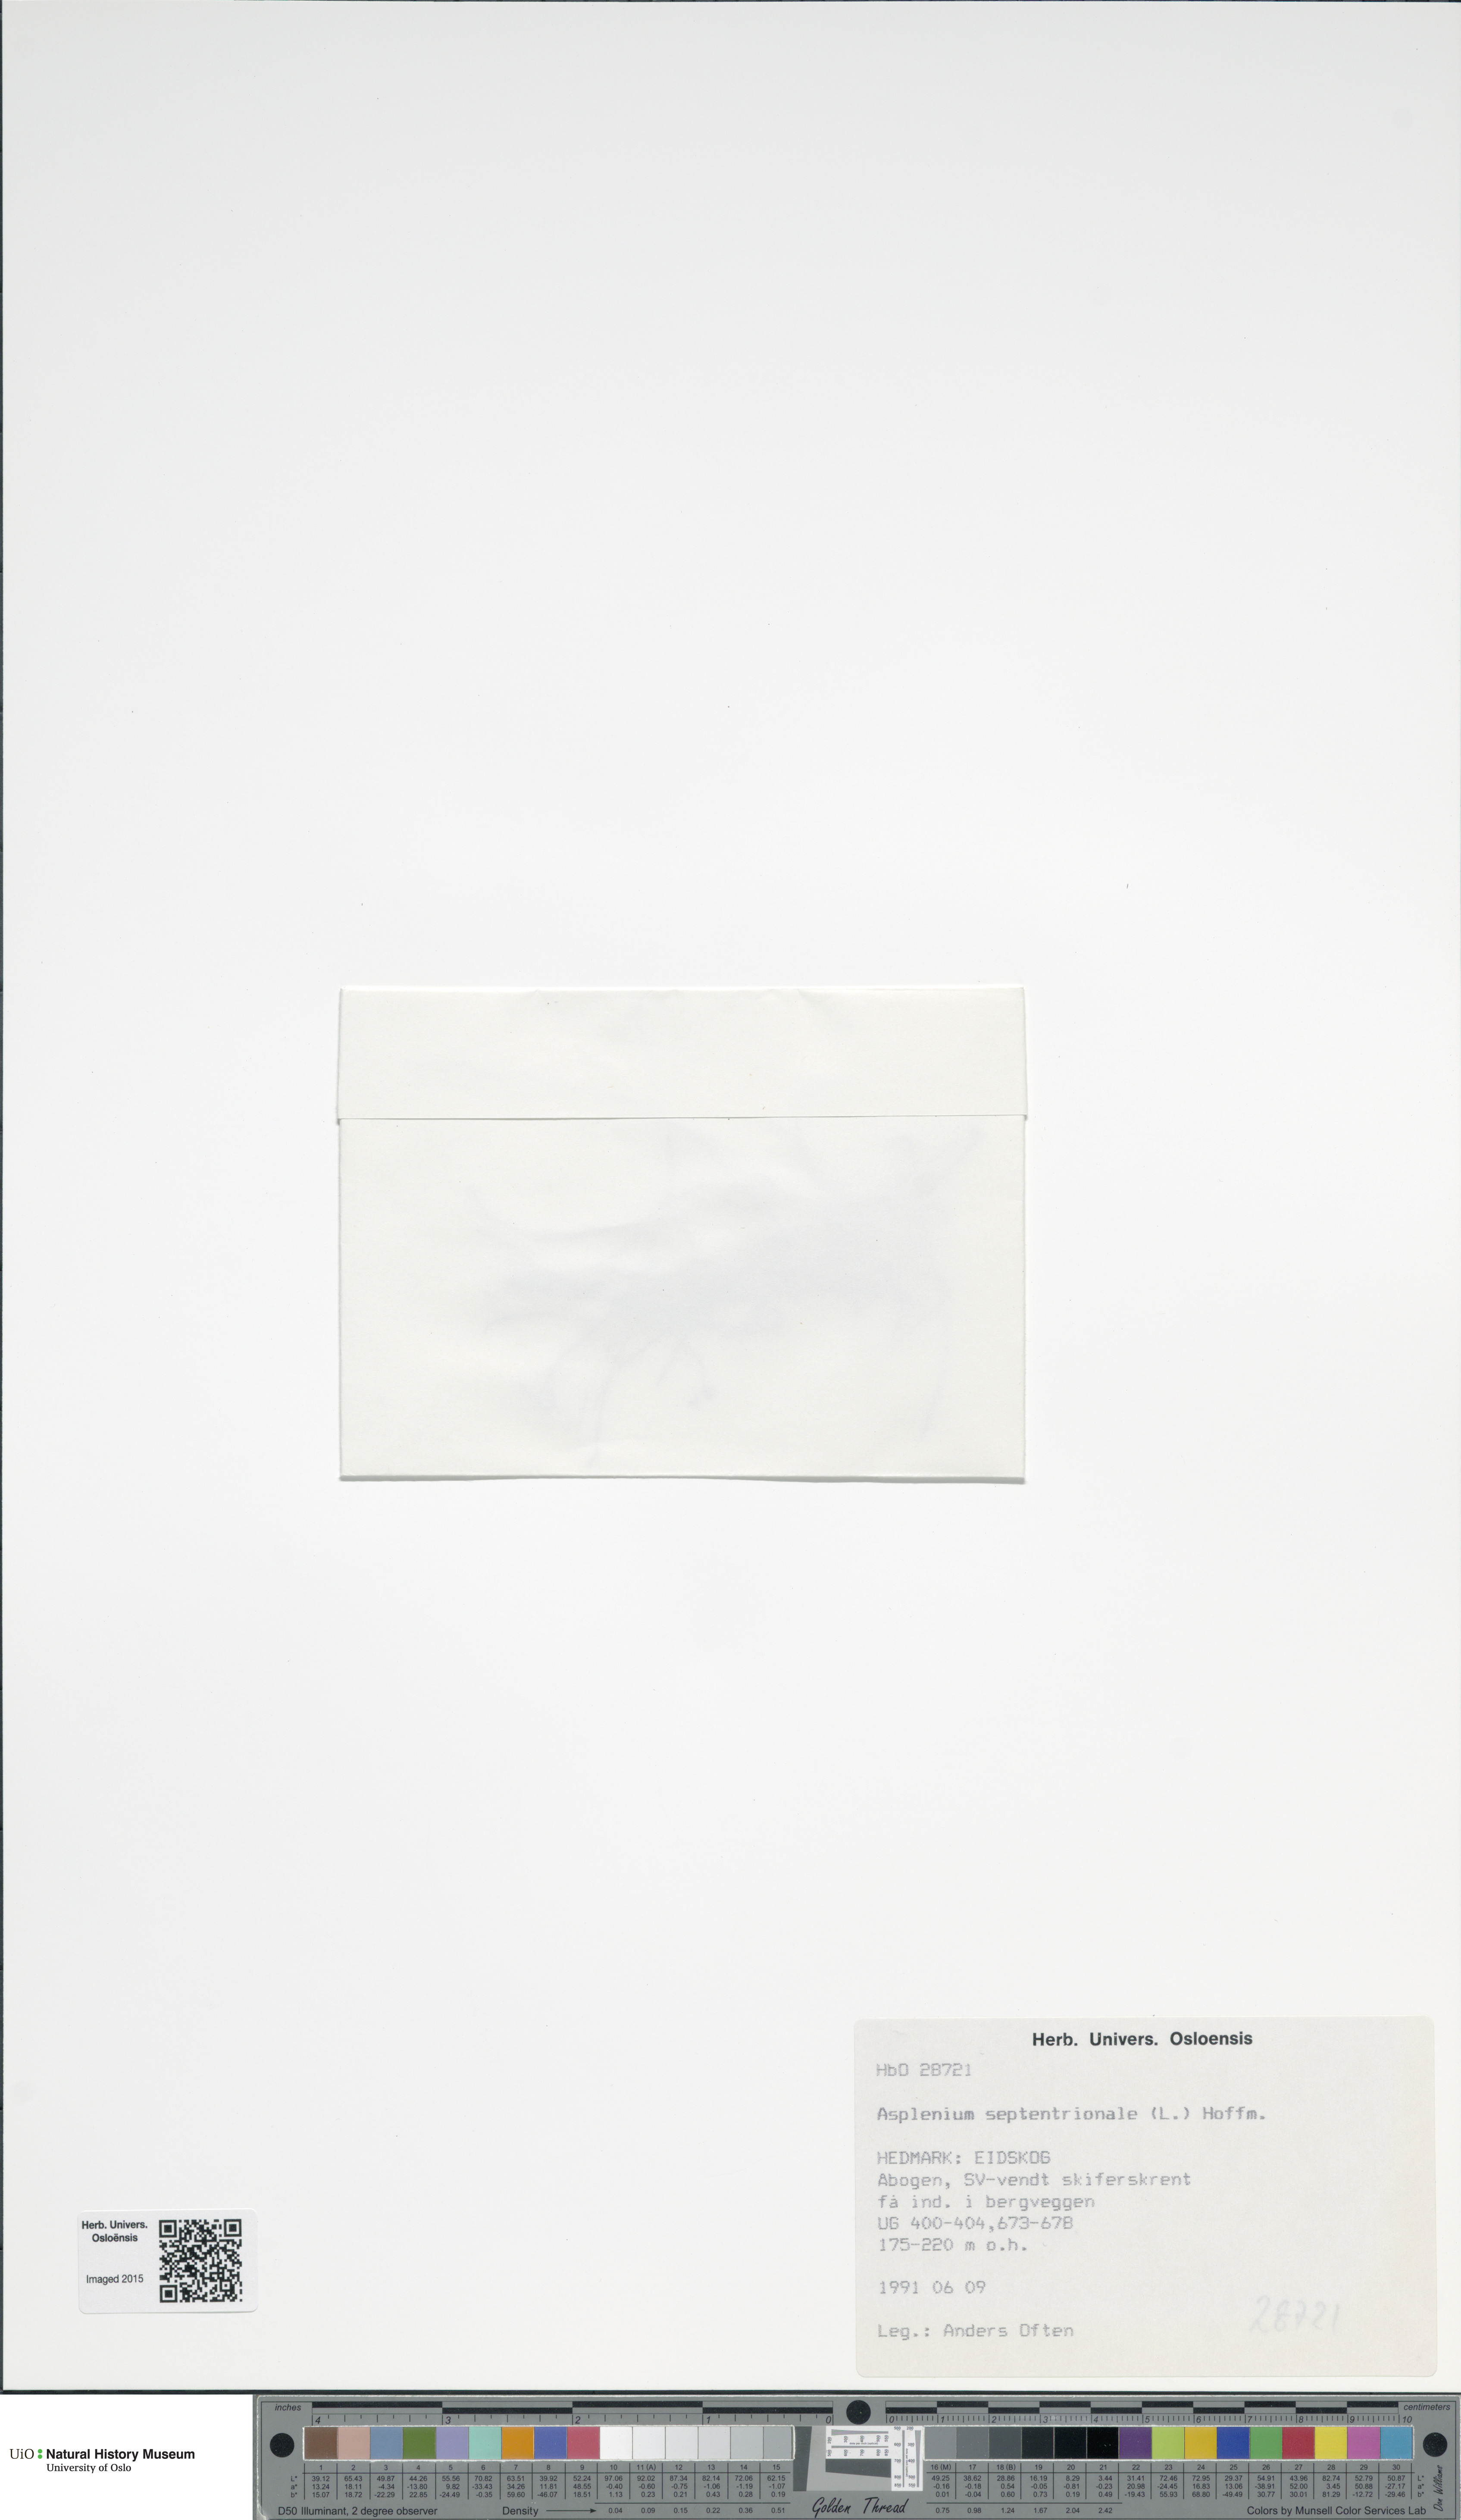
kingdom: Plantae
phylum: Tracheophyta
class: Polypodiopsida
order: Polypodiales
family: Aspleniaceae
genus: Asplenium
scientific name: Asplenium septentrionale
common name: Forked spleenwort
